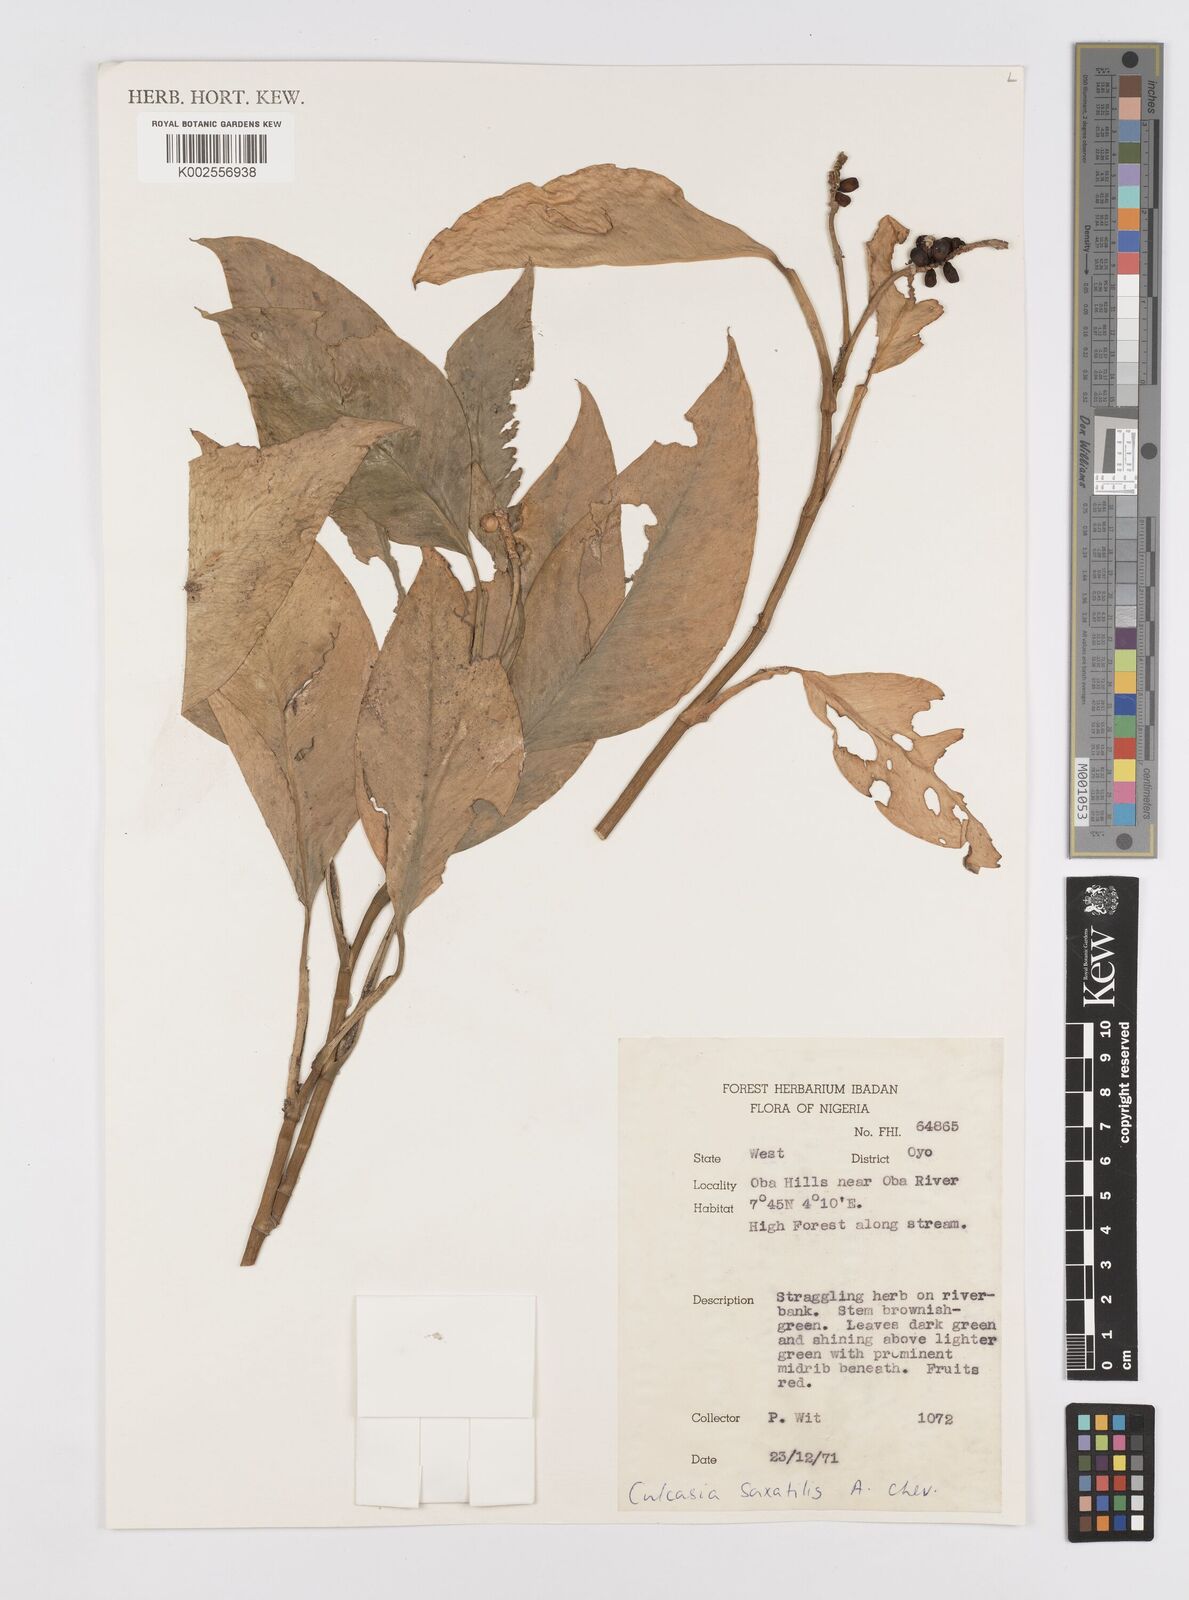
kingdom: Plantae
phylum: Tracheophyta
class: Liliopsida
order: Alismatales
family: Araceae
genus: Culcasia
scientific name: Culcasia scandens
